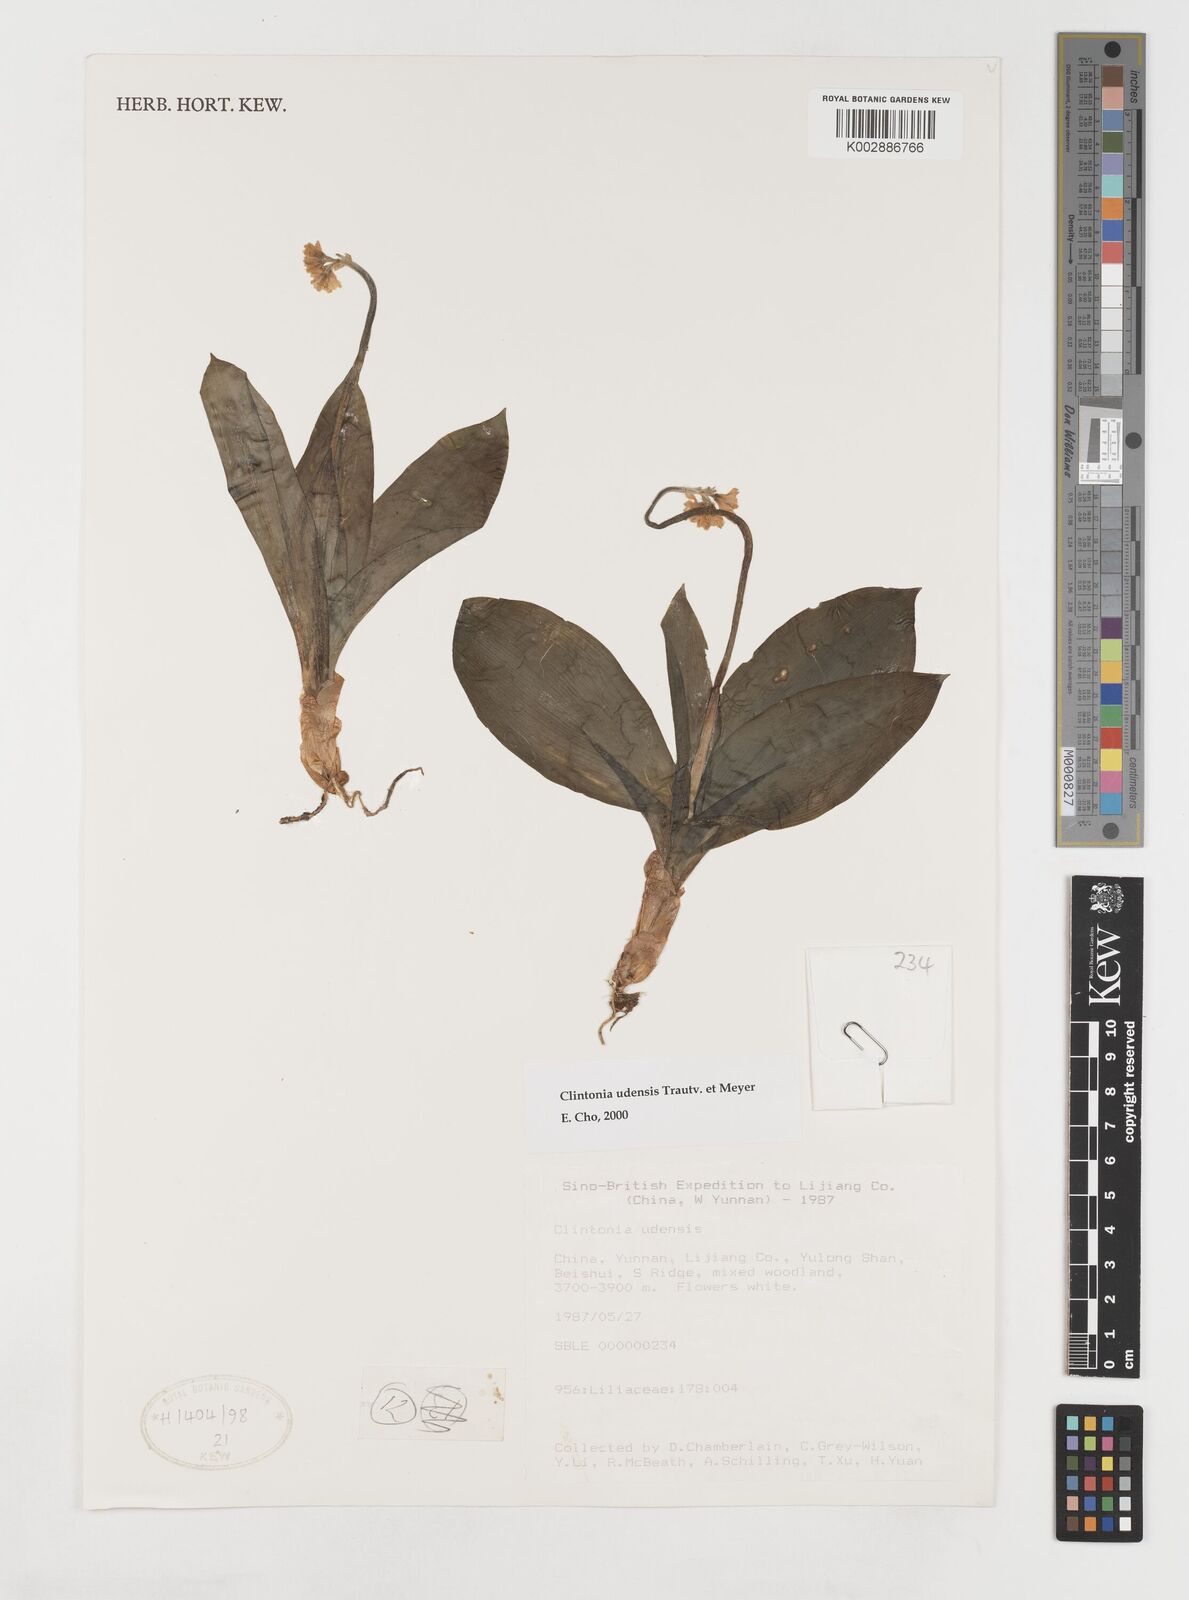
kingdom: Plantae
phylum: Tracheophyta
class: Liliopsida
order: Liliales
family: Liliaceae
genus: Clintonia
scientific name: Clintonia udensis
